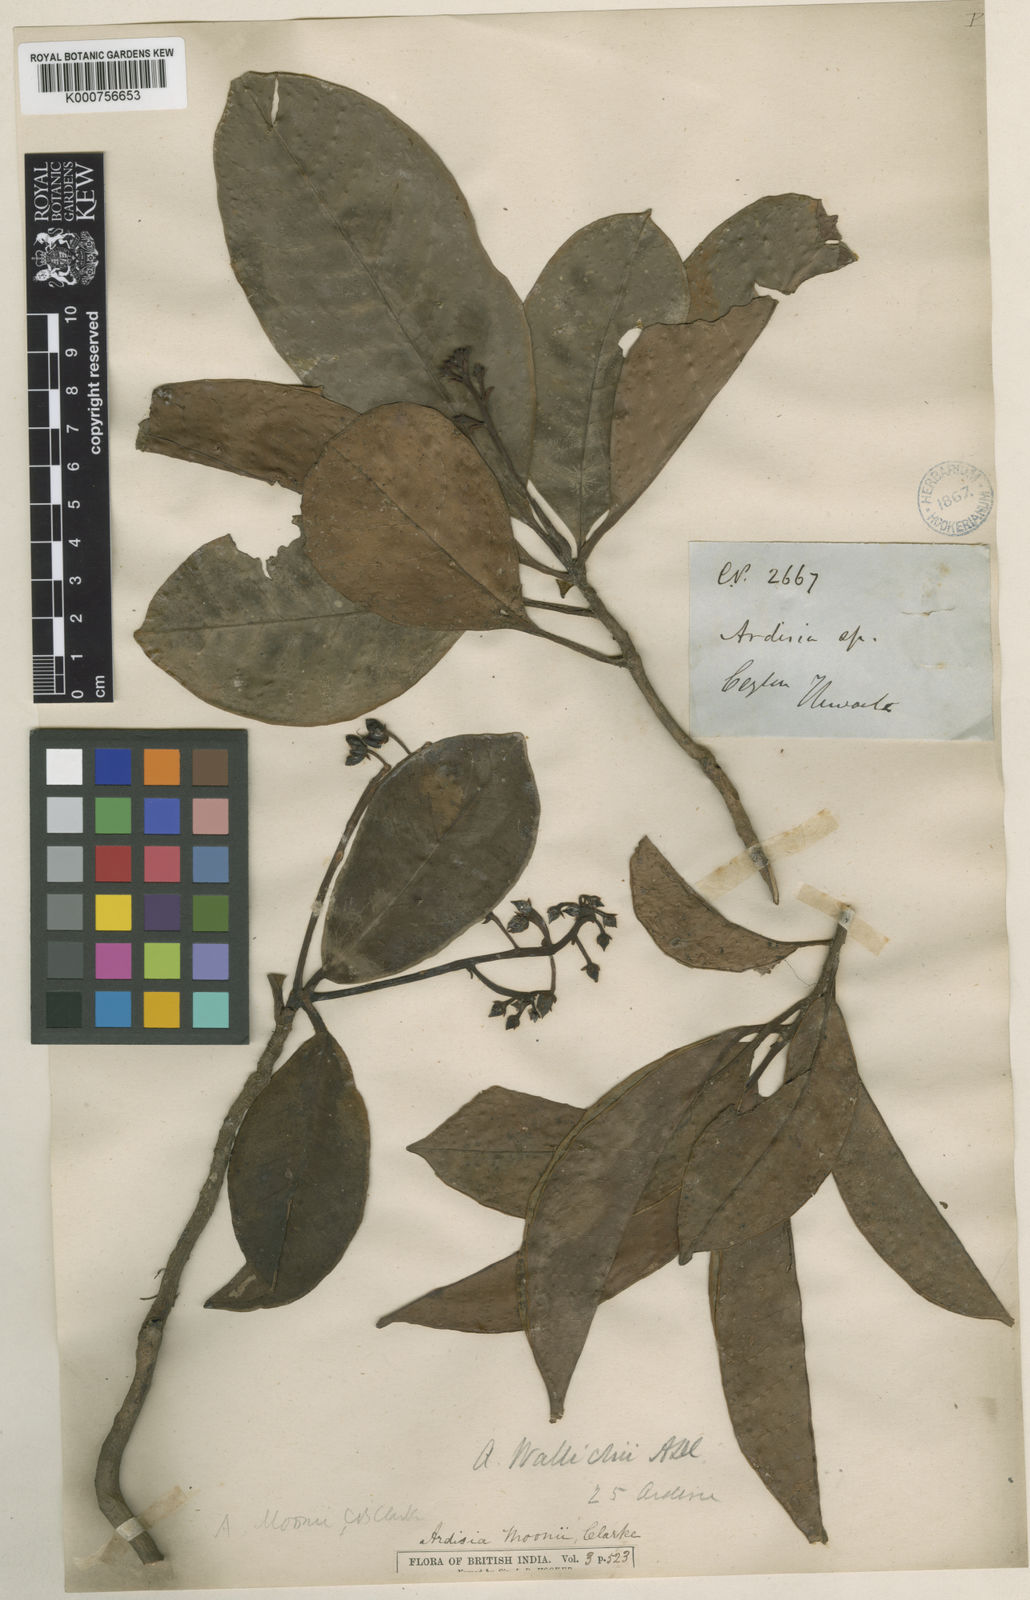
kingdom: Plantae
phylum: Tracheophyta
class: Magnoliopsida
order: Ericales
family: Primulaceae
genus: Ardisia
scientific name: Ardisia zeylanica
